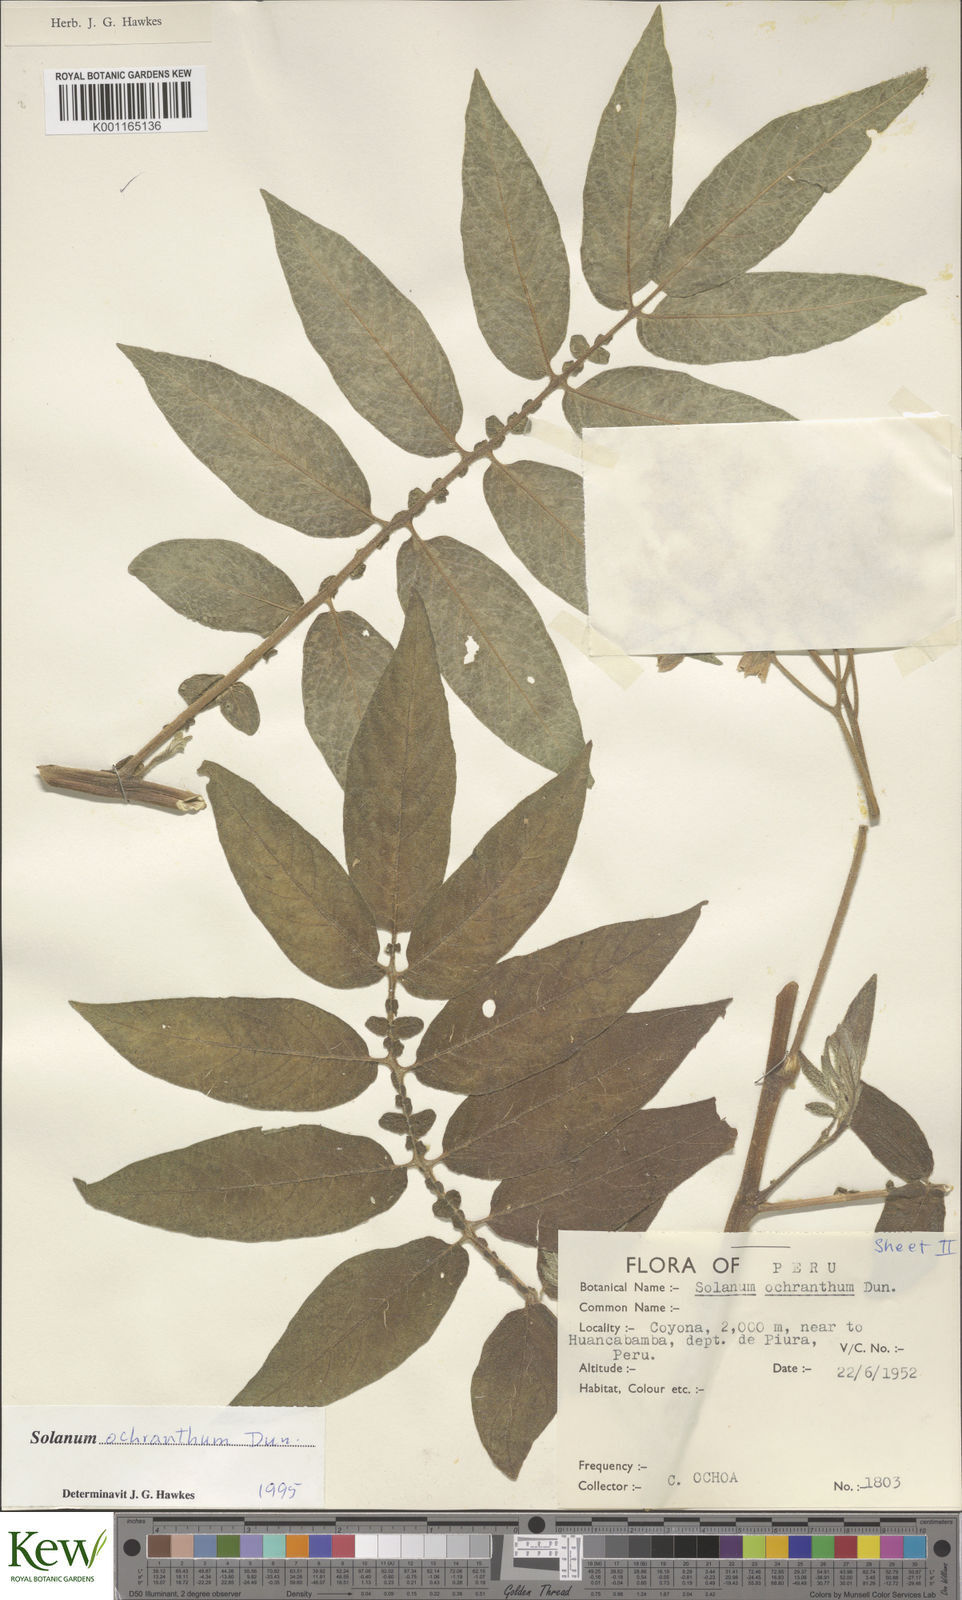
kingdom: Plantae
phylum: Tracheophyta
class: Magnoliopsida
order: Solanales
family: Solanaceae
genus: Solanum
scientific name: Solanum ochranthum
